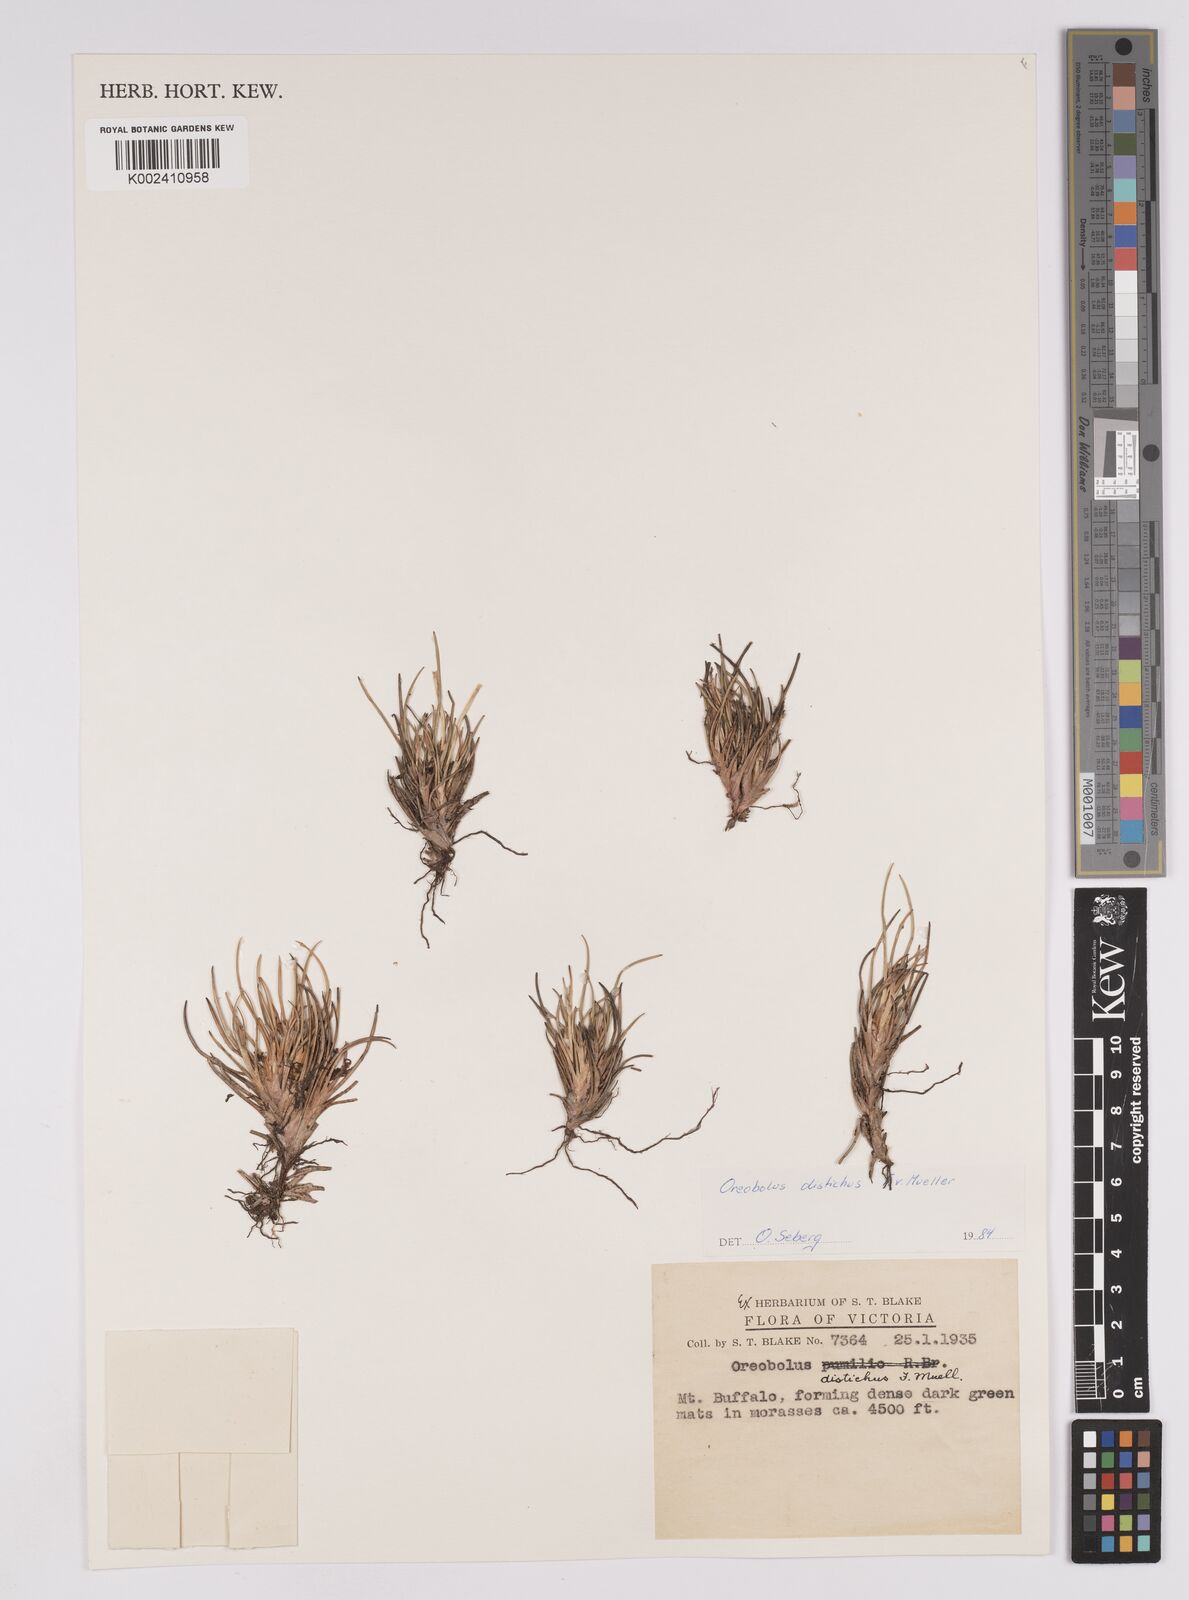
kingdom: Plantae
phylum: Tracheophyta
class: Liliopsida
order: Poales
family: Cyperaceae
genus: Oreobolus
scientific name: Oreobolus distichus
